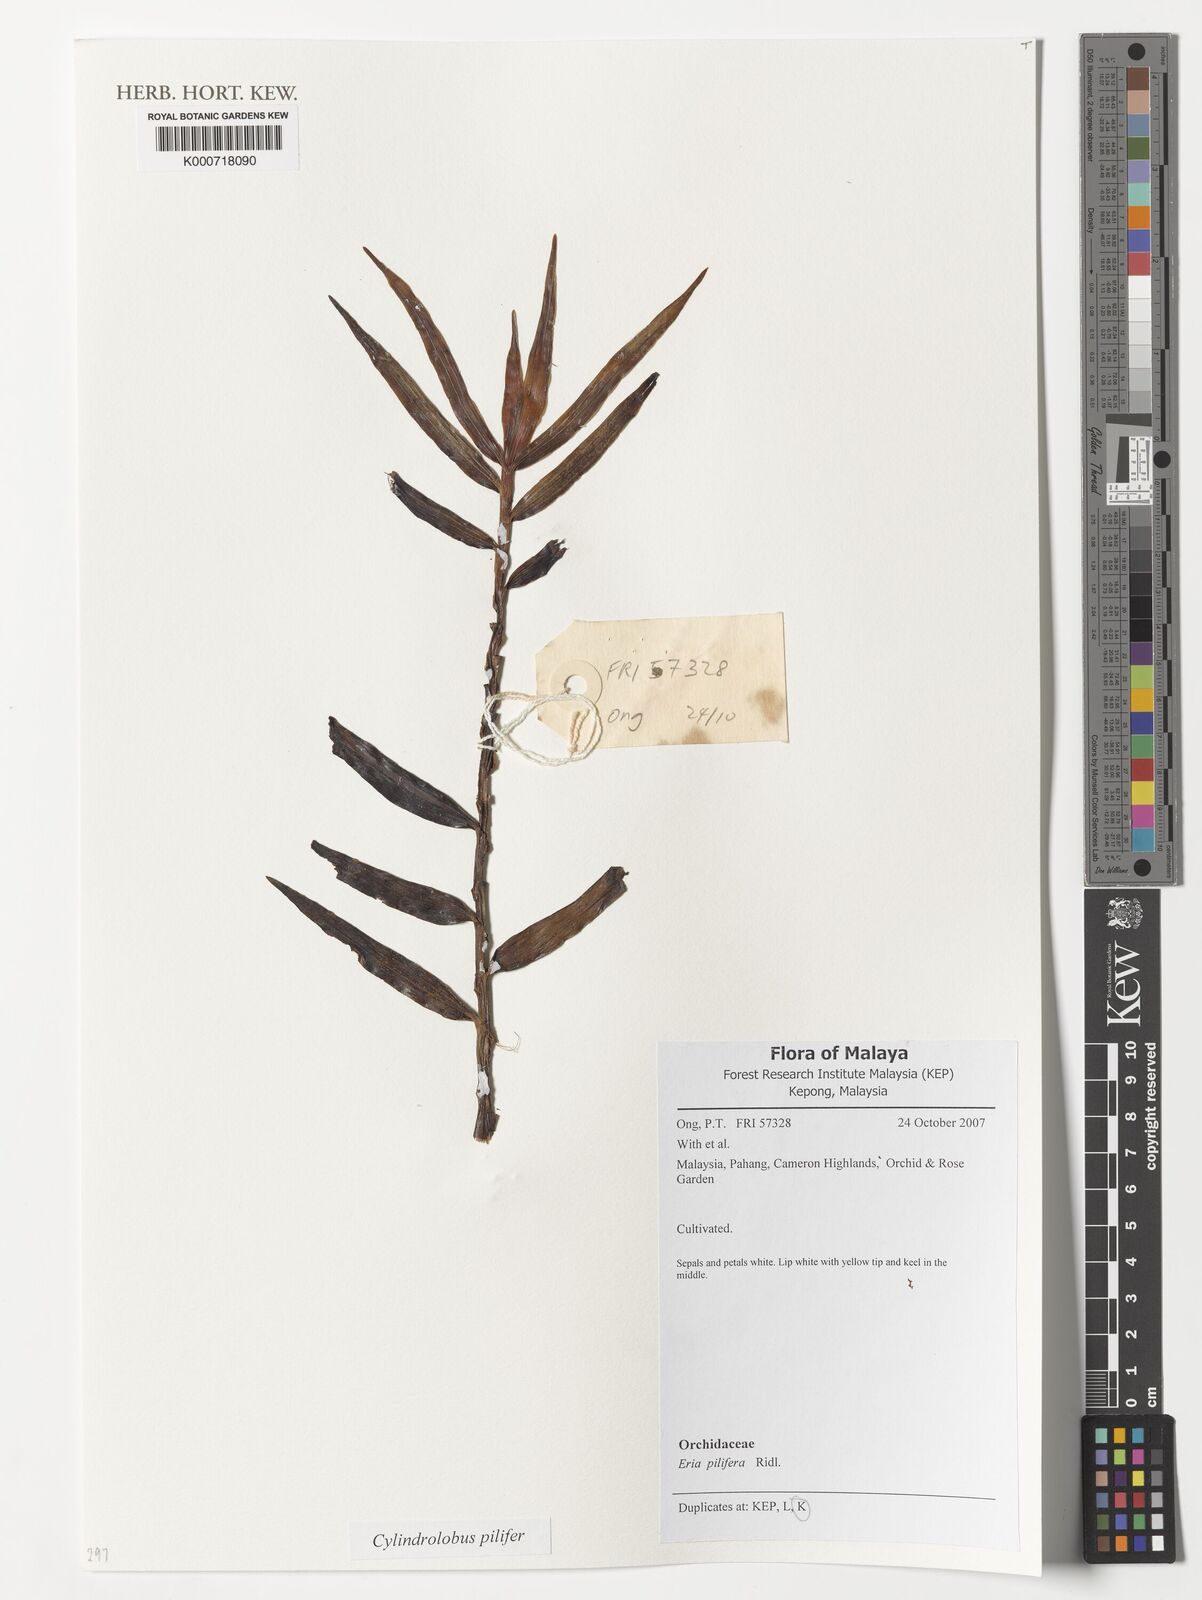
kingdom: Plantae
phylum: Tracheophyta
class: Liliopsida
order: Asparagales
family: Orchidaceae
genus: Cylindrolobus
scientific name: Cylindrolobus lamonganensis
